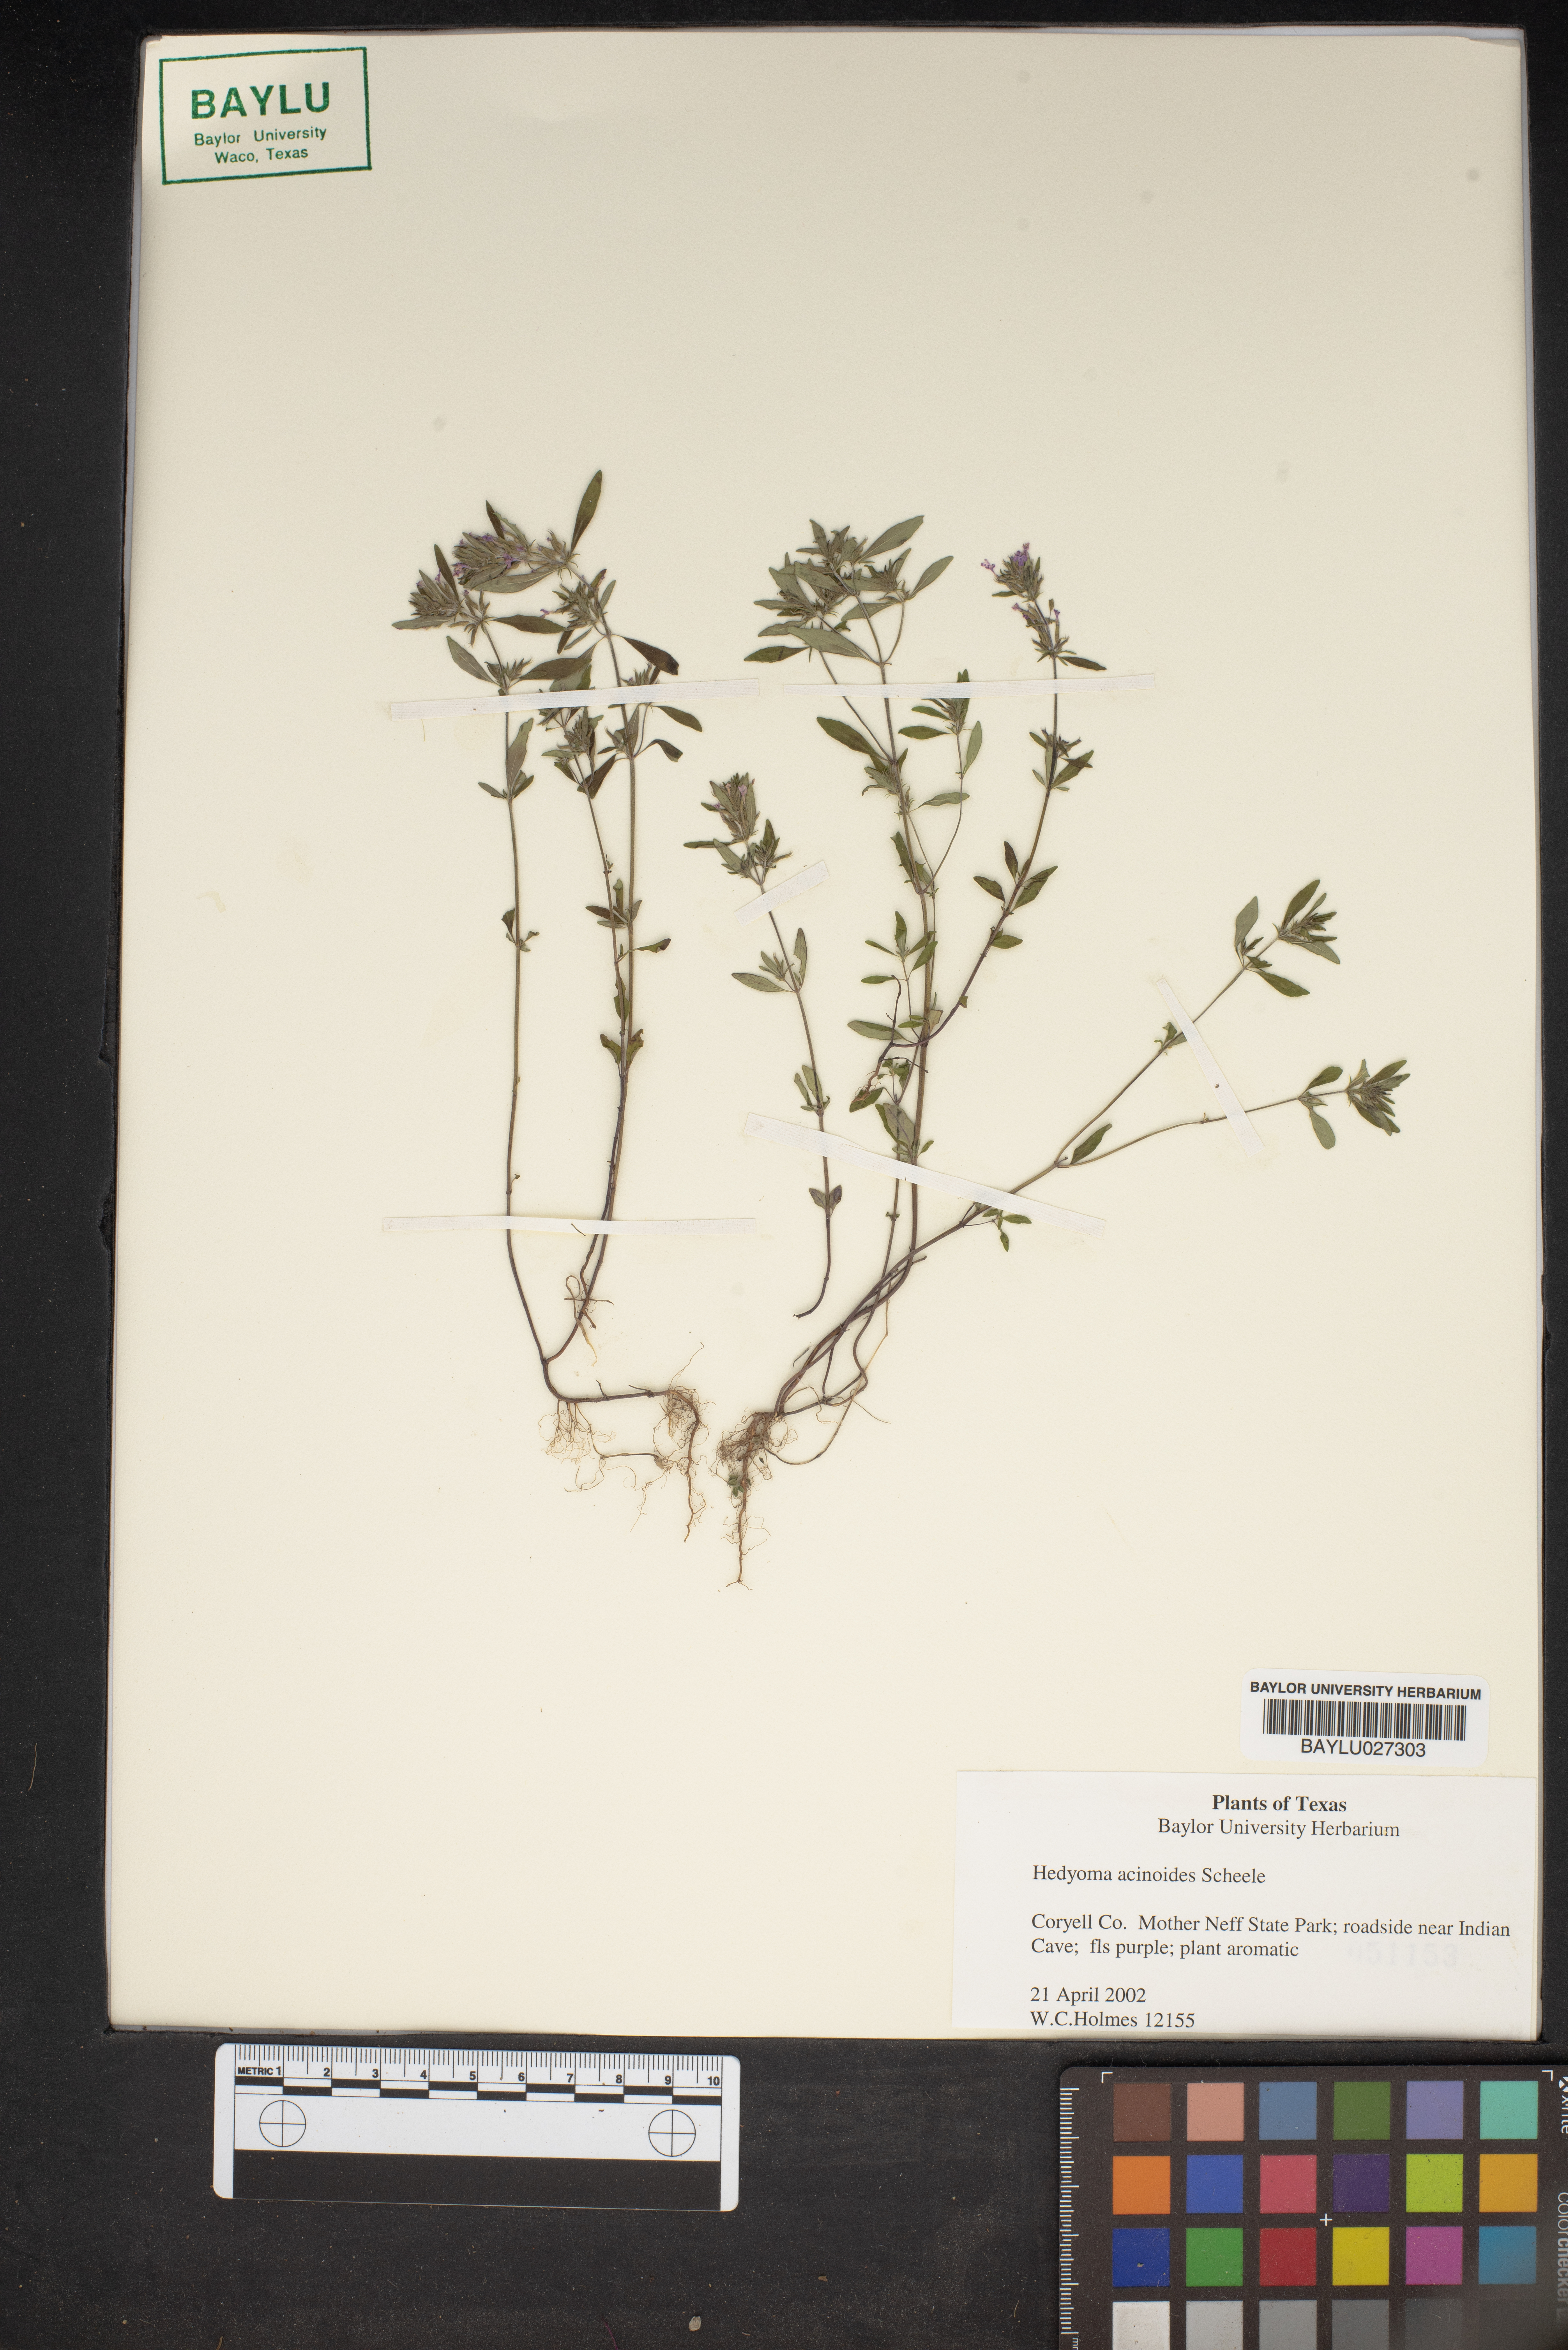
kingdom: Plantae
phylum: Tracheophyta
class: Magnoliopsida
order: Lamiales
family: Lamiaceae
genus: Hedeoma
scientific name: Hedeoma acinoides
